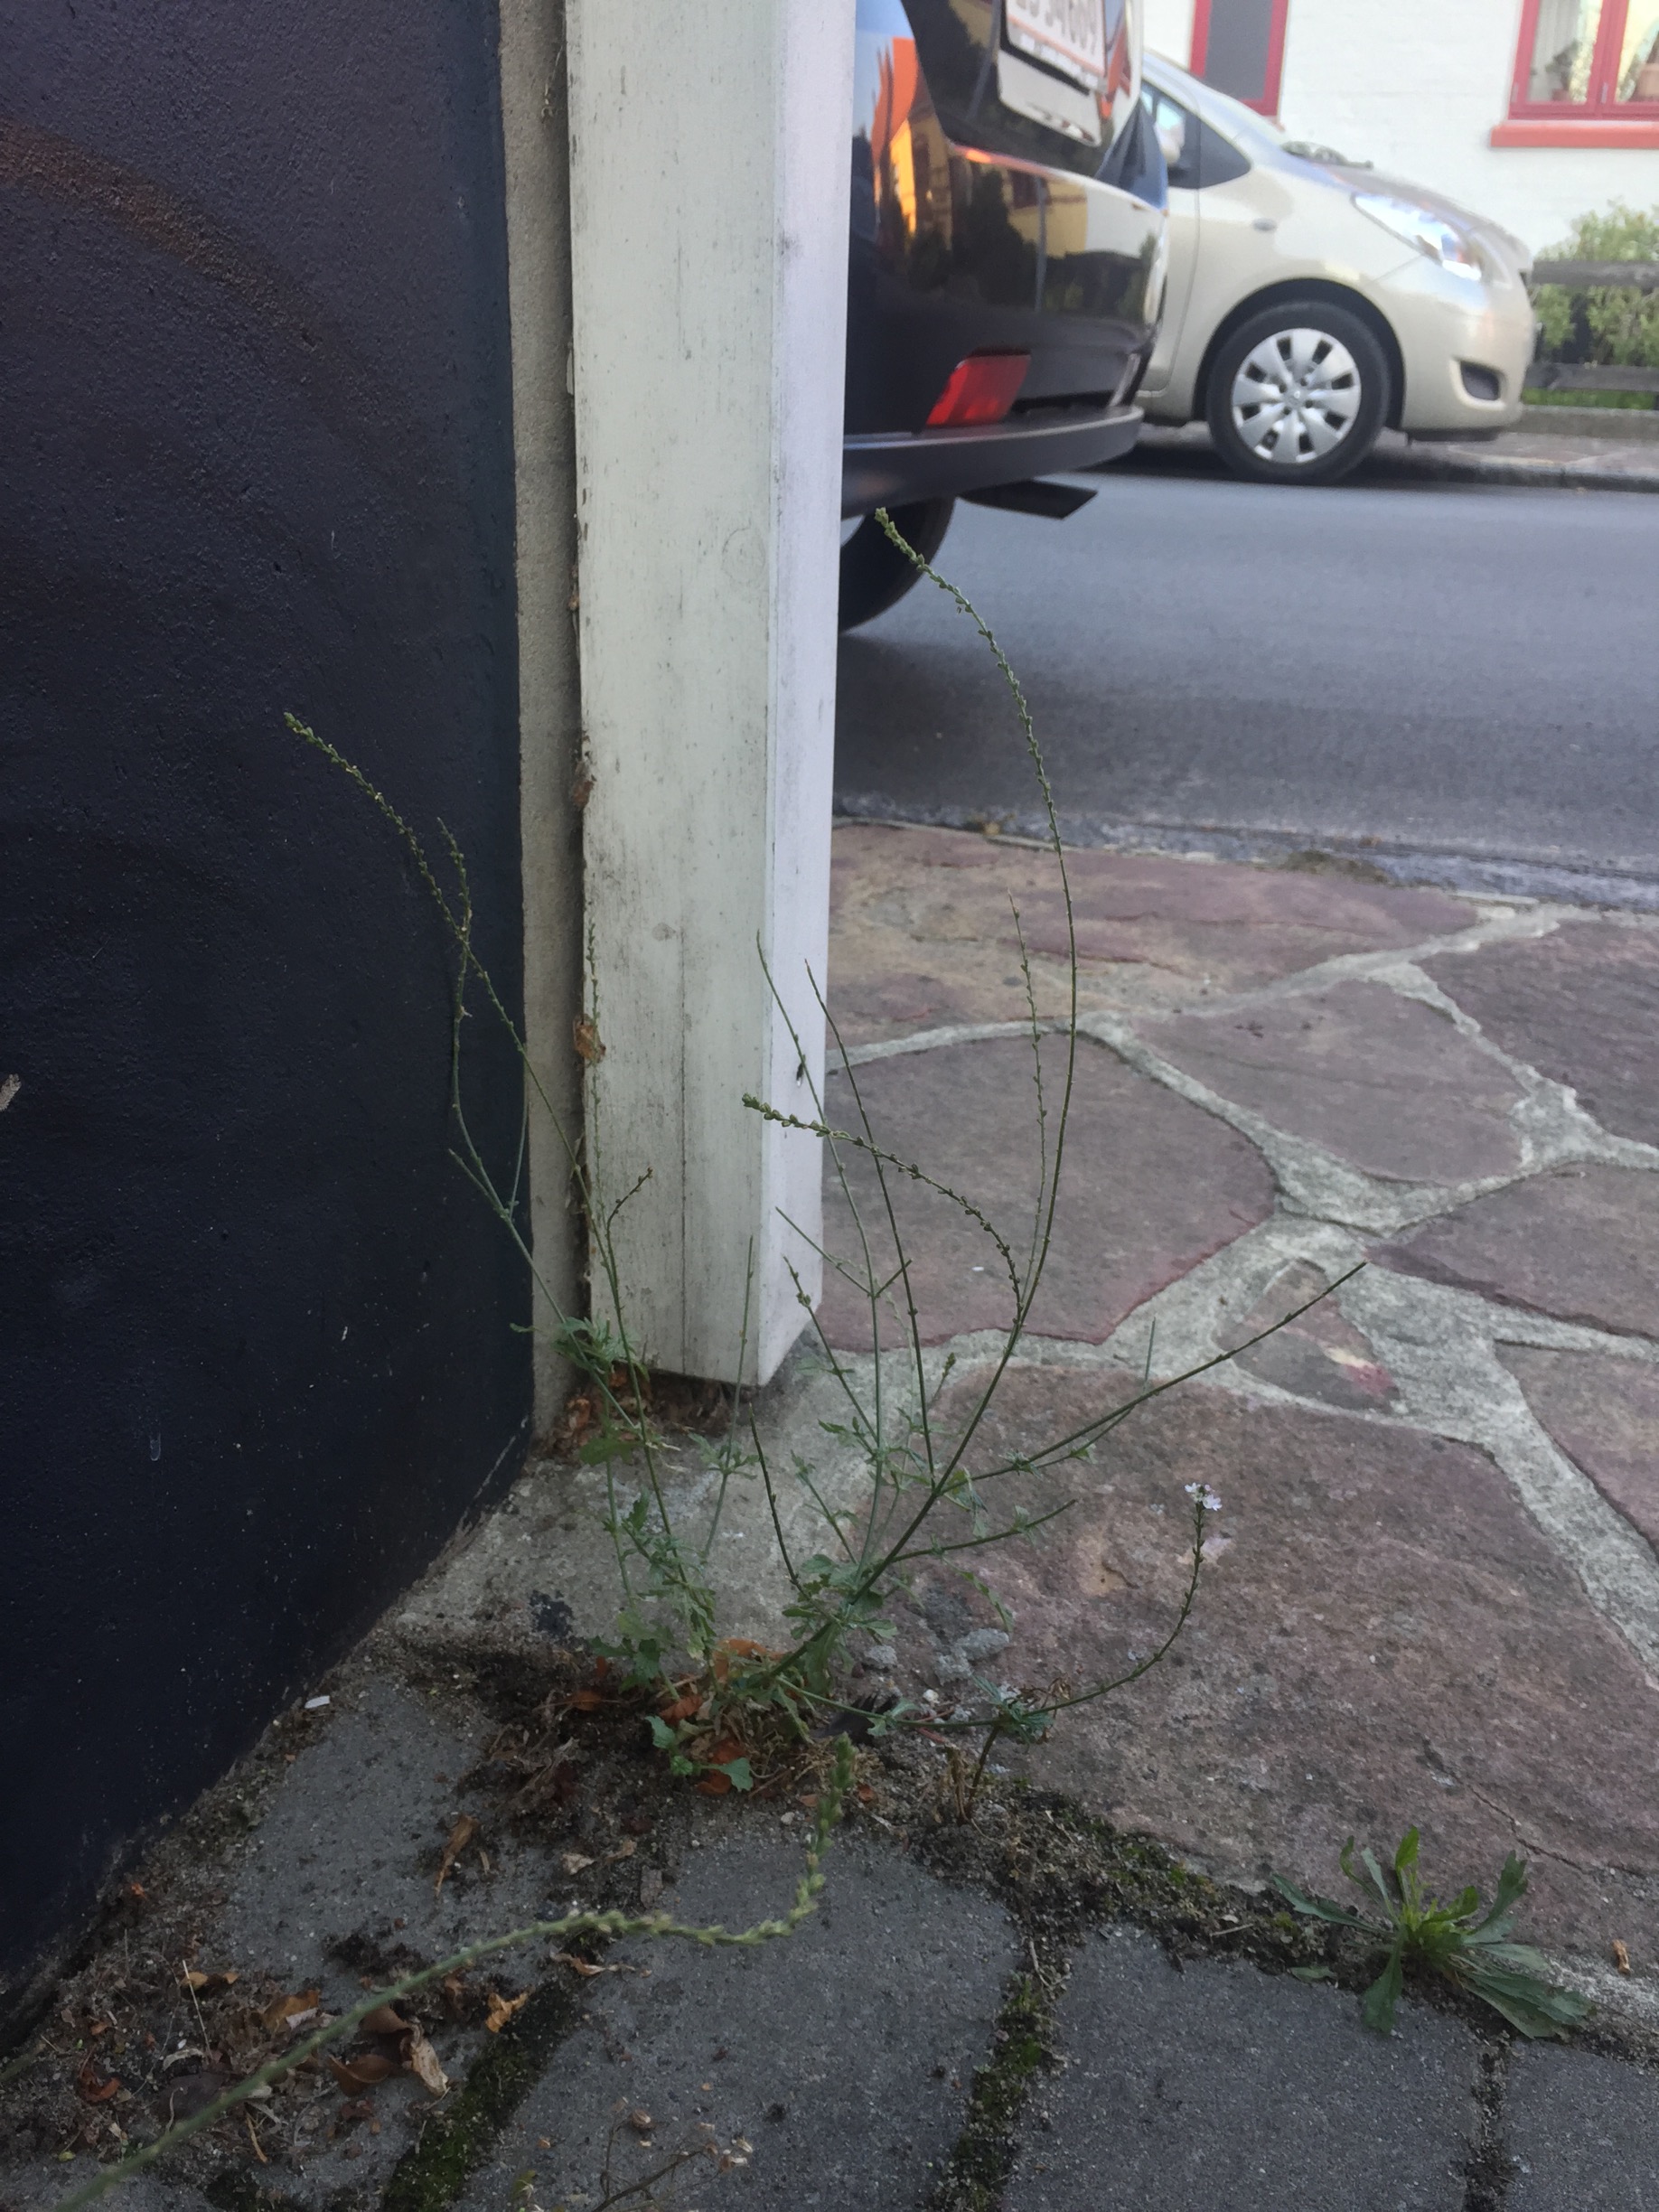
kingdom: Plantae
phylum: Tracheophyta
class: Magnoliopsida
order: Lamiales
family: Verbenaceae
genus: Verbena
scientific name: Verbena officinalis
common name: Læge-jernurt
